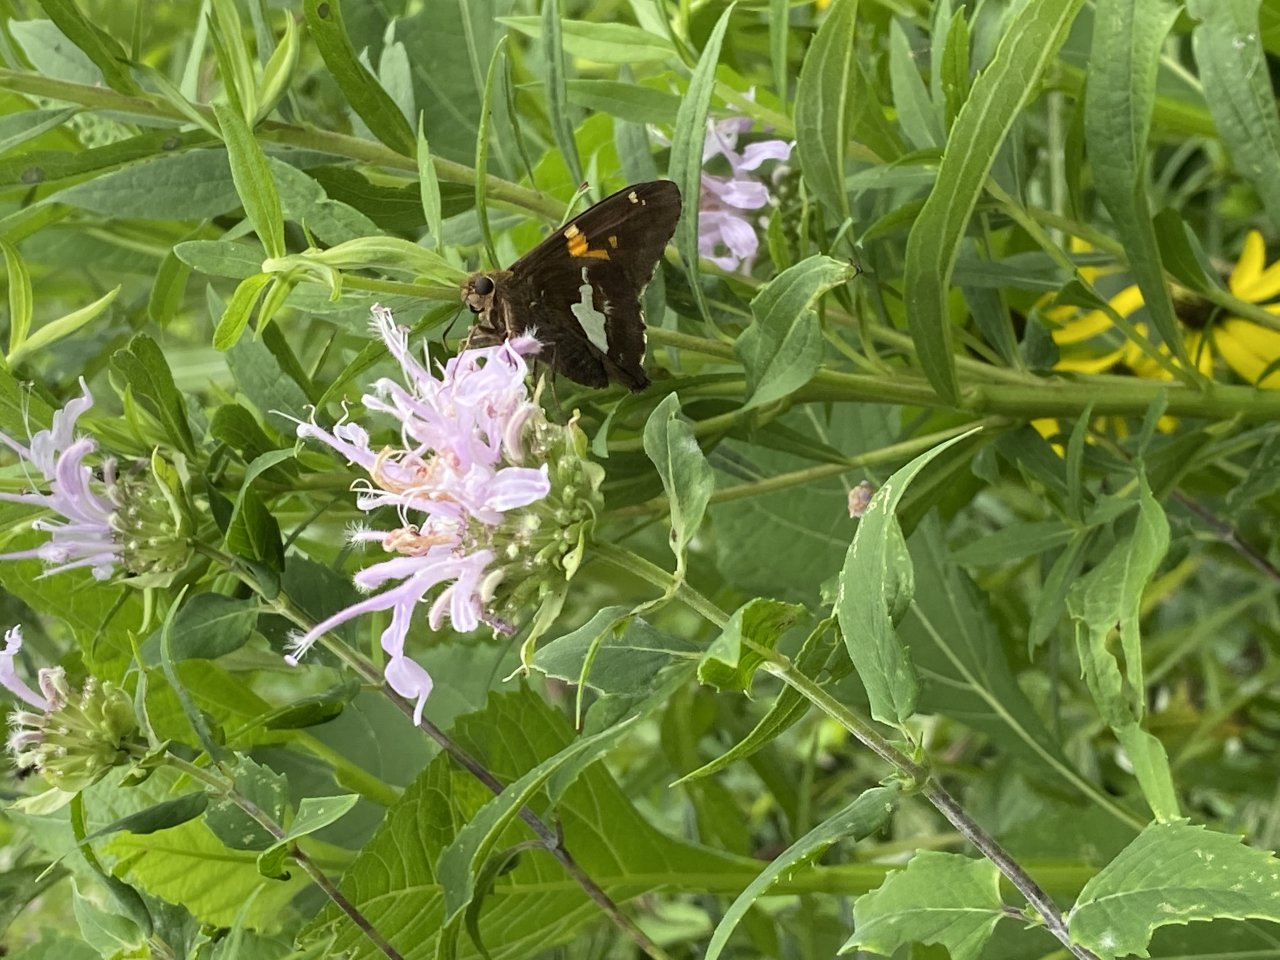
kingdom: Animalia
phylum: Arthropoda
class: Insecta
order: Lepidoptera
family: Hesperiidae
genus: Epargyreus
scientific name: Epargyreus clarus
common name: Silver-spotted Skipper
